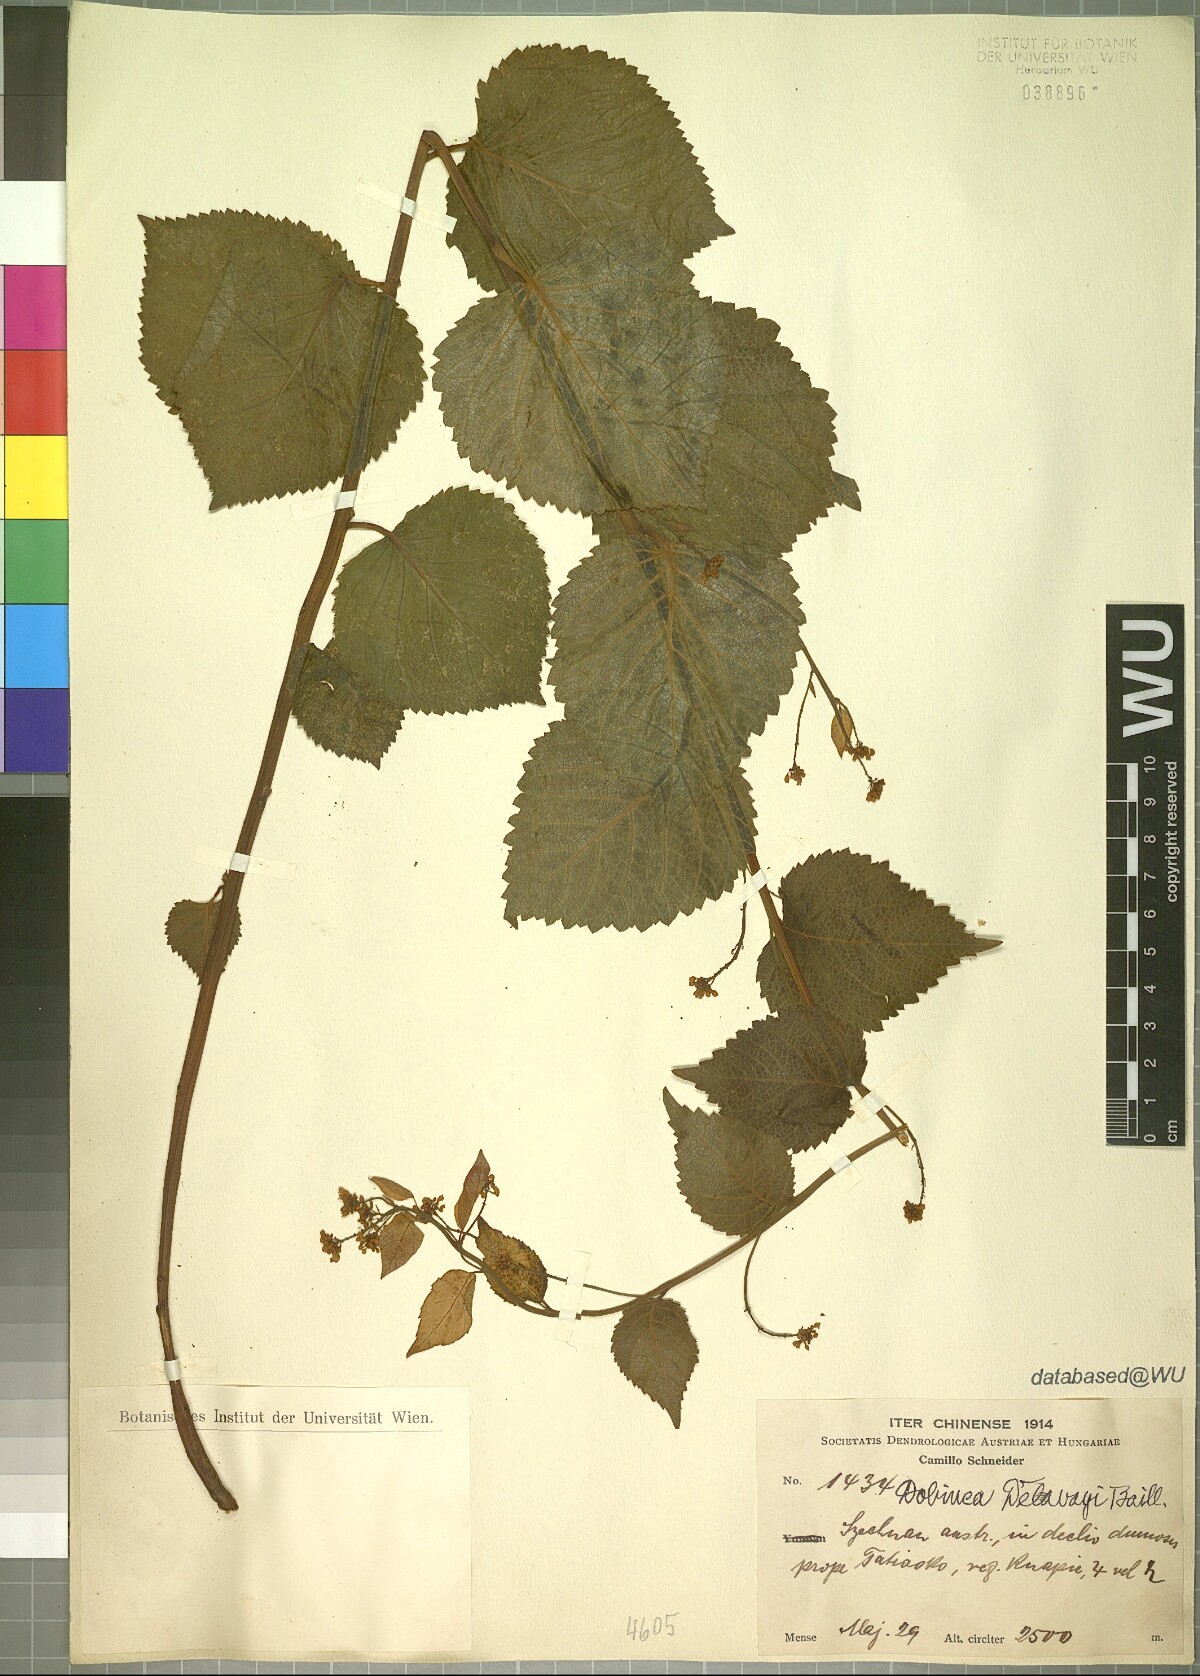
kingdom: Plantae
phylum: Tracheophyta
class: Magnoliopsida
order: Sapindales
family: Anacardiaceae
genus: Dobinea
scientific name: Dobinea delavayi
